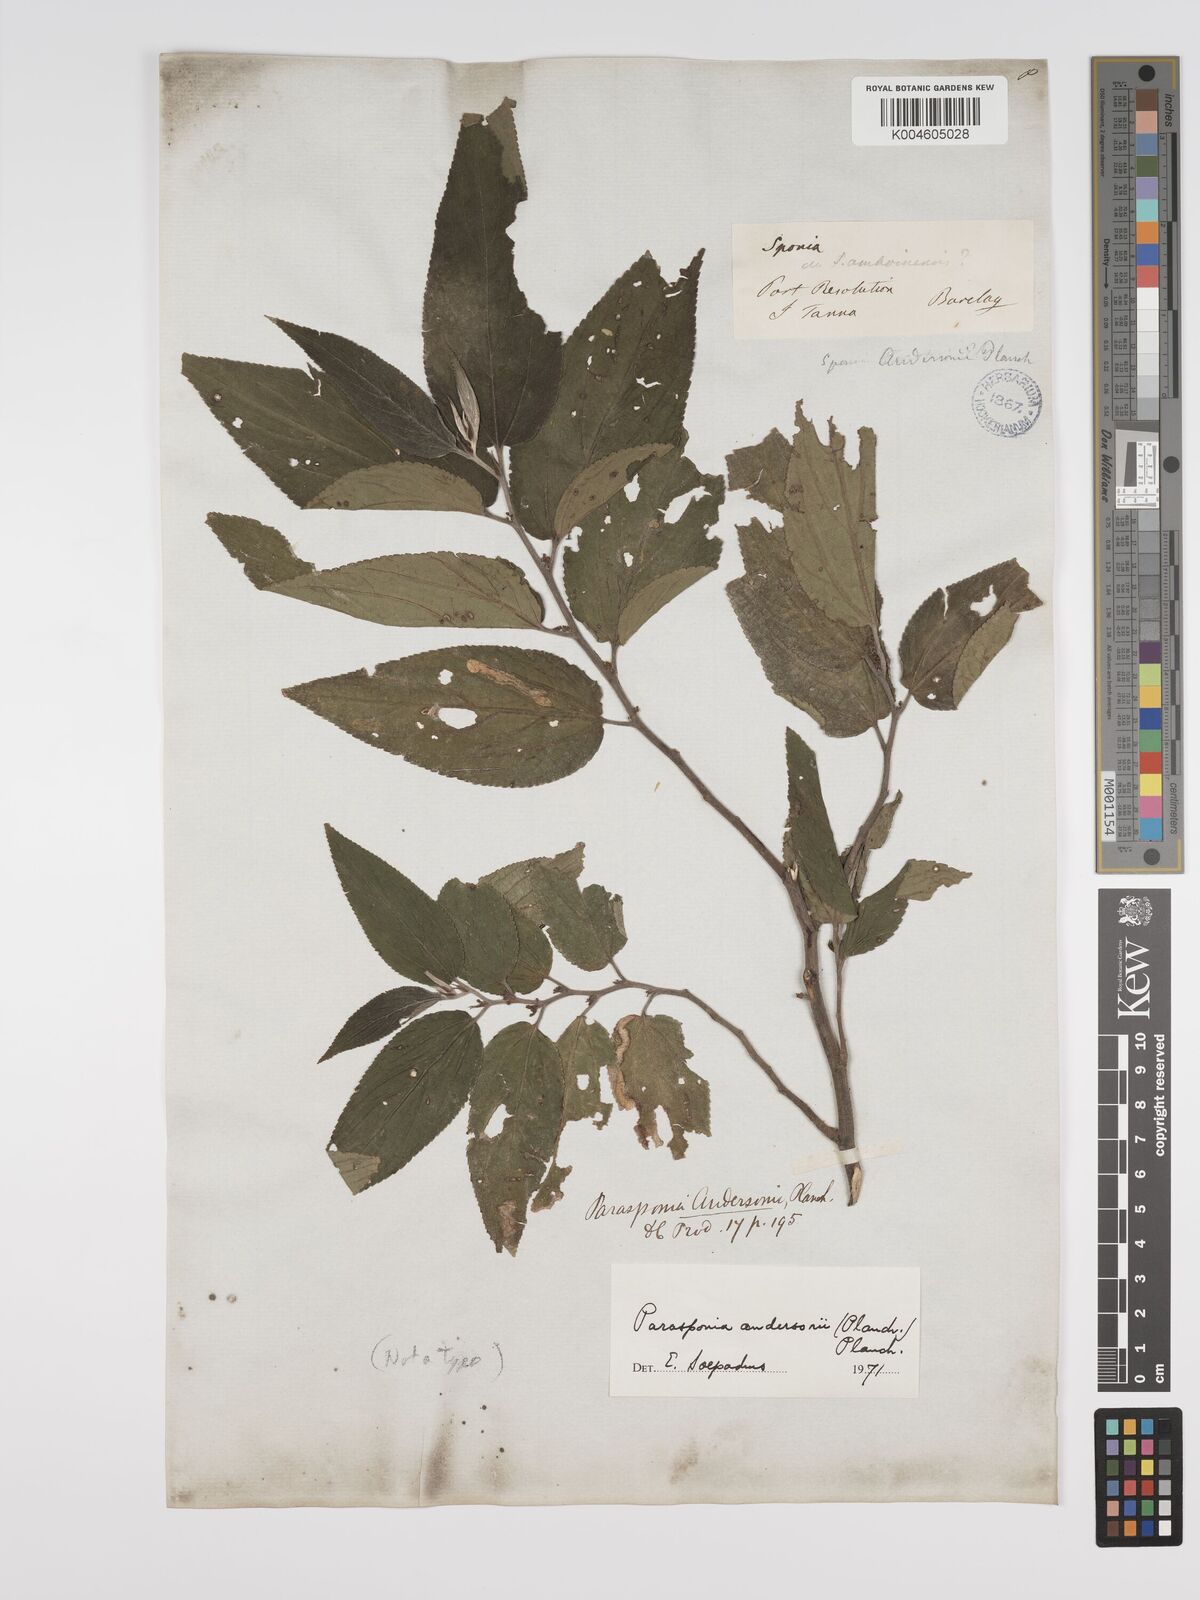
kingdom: Plantae
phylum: Tracheophyta
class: Magnoliopsida
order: Rosales
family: Cannabaceae
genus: Trema
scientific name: Trema andersonii
